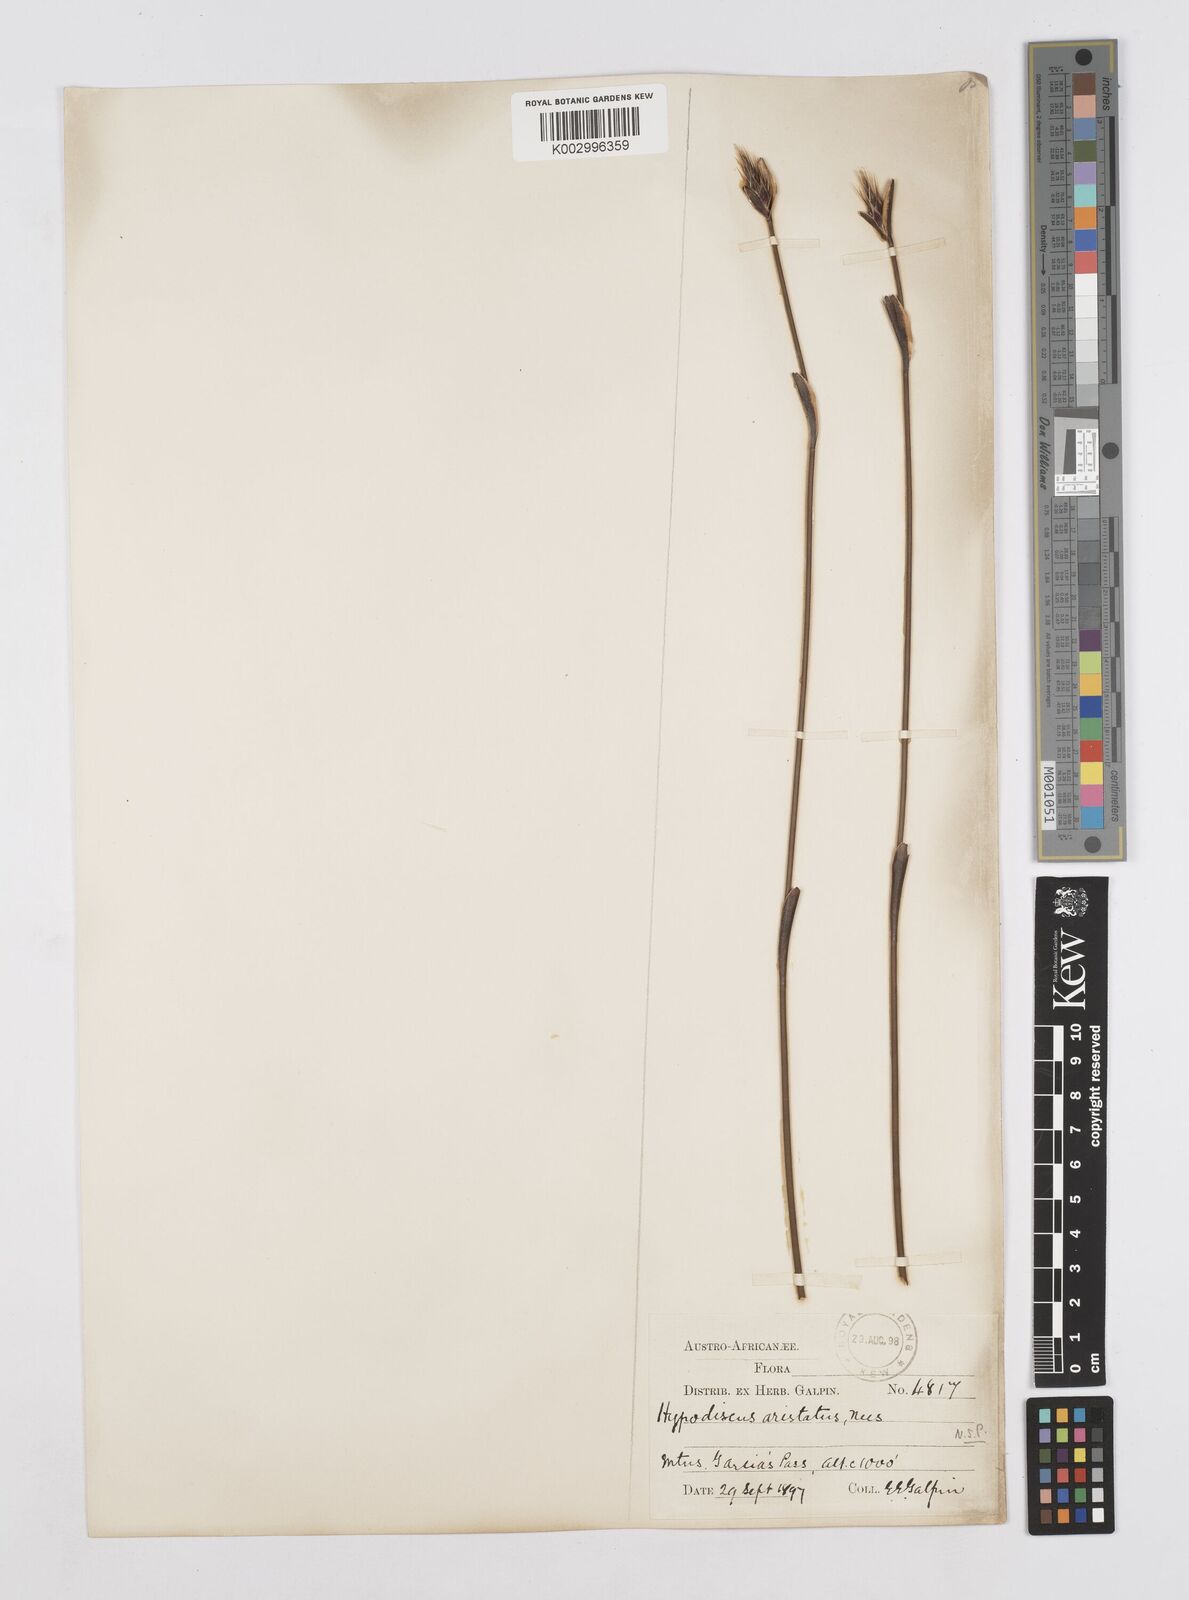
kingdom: Plantae
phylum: Tracheophyta
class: Liliopsida
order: Poales
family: Restionaceae
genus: Hypodiscus
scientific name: Hypodiscus aristatus
